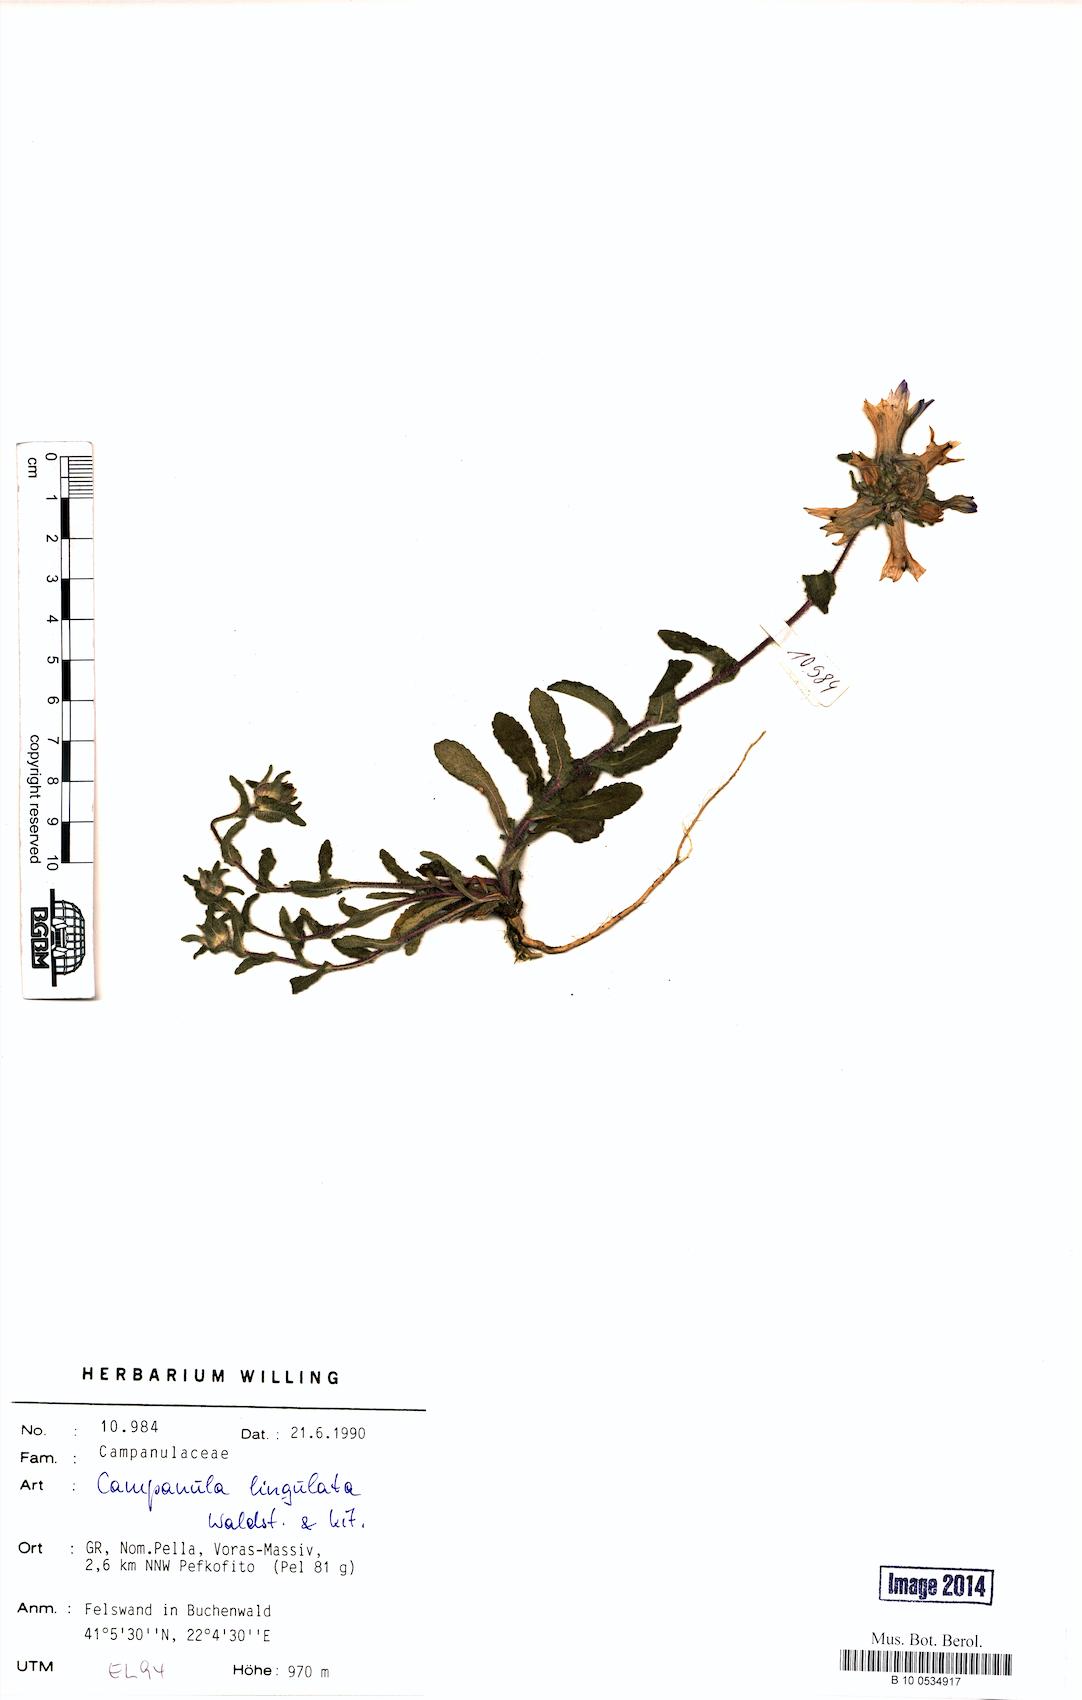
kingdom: Plantae
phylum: Tracheophyta
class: Magnoliopsida
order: Asterales
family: Campanulaceae
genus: Campanula
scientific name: Campanula lingulata
